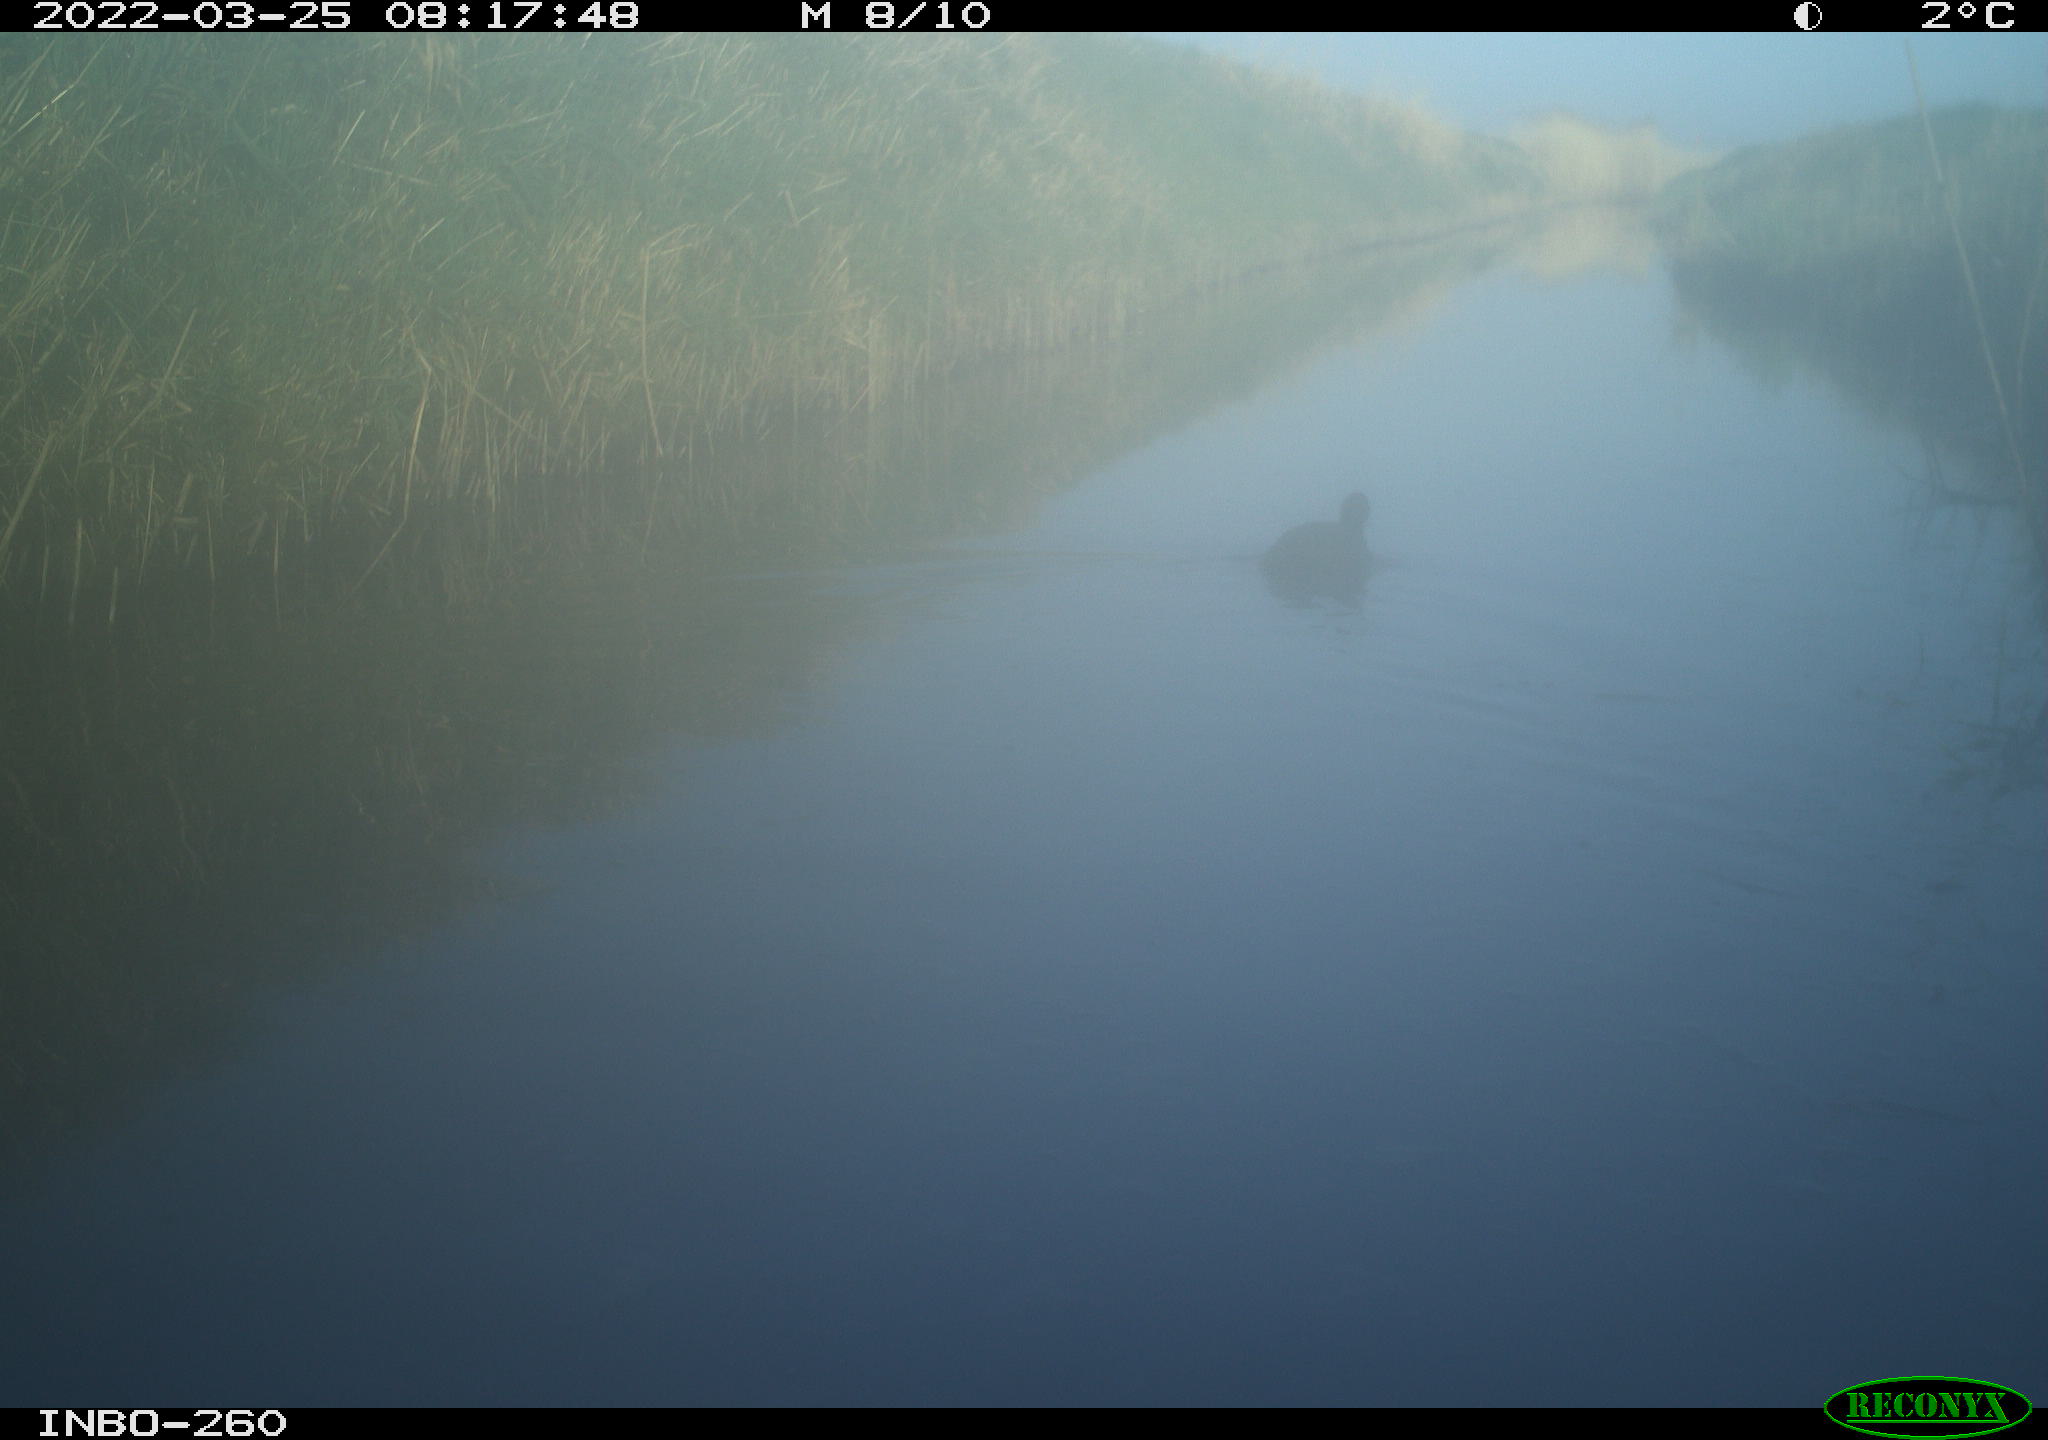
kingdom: Animalia
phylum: Chordata
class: Aves
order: Gruiformes
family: Rallidae
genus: Fulica
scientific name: Fulica atra
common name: Eurasian coot
